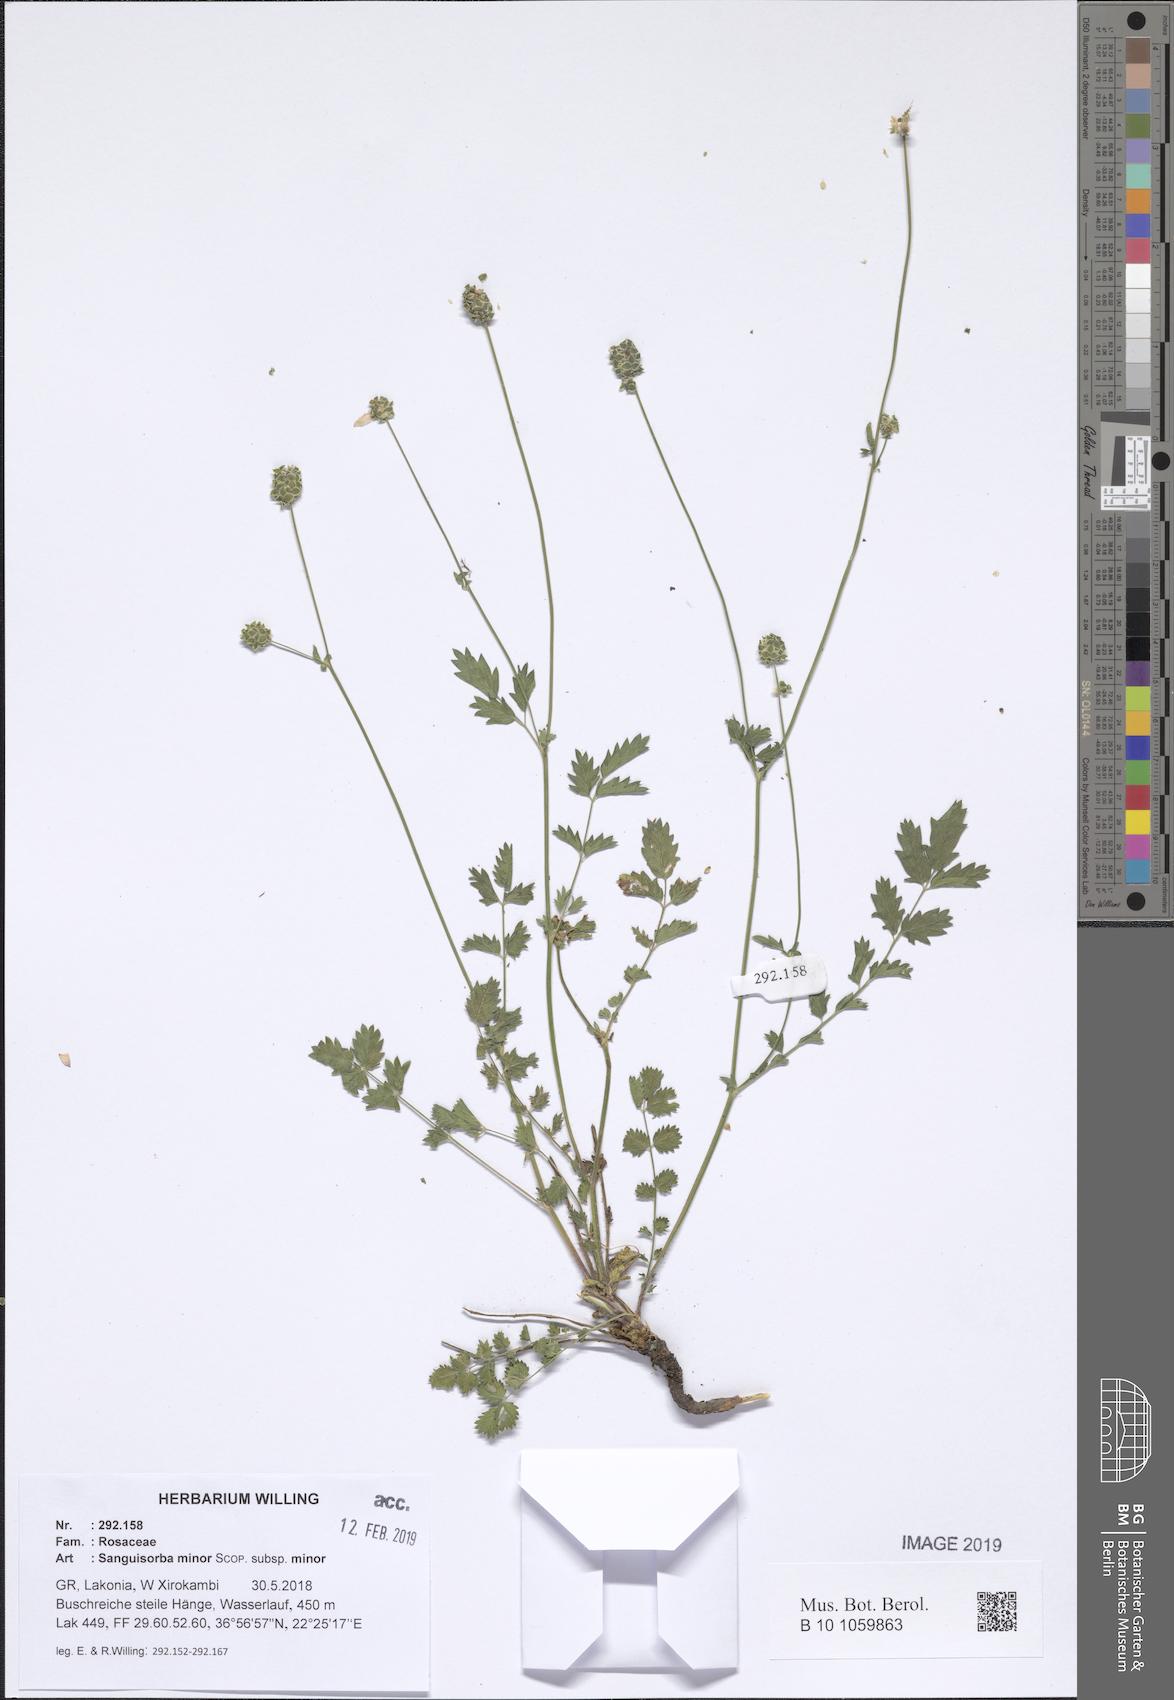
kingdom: Plantae
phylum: Tracheophyta
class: Magnoliopsida
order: Rosales
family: Rosaceae
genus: Poterium
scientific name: Poterium sanguisorba
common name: Salad burnet
